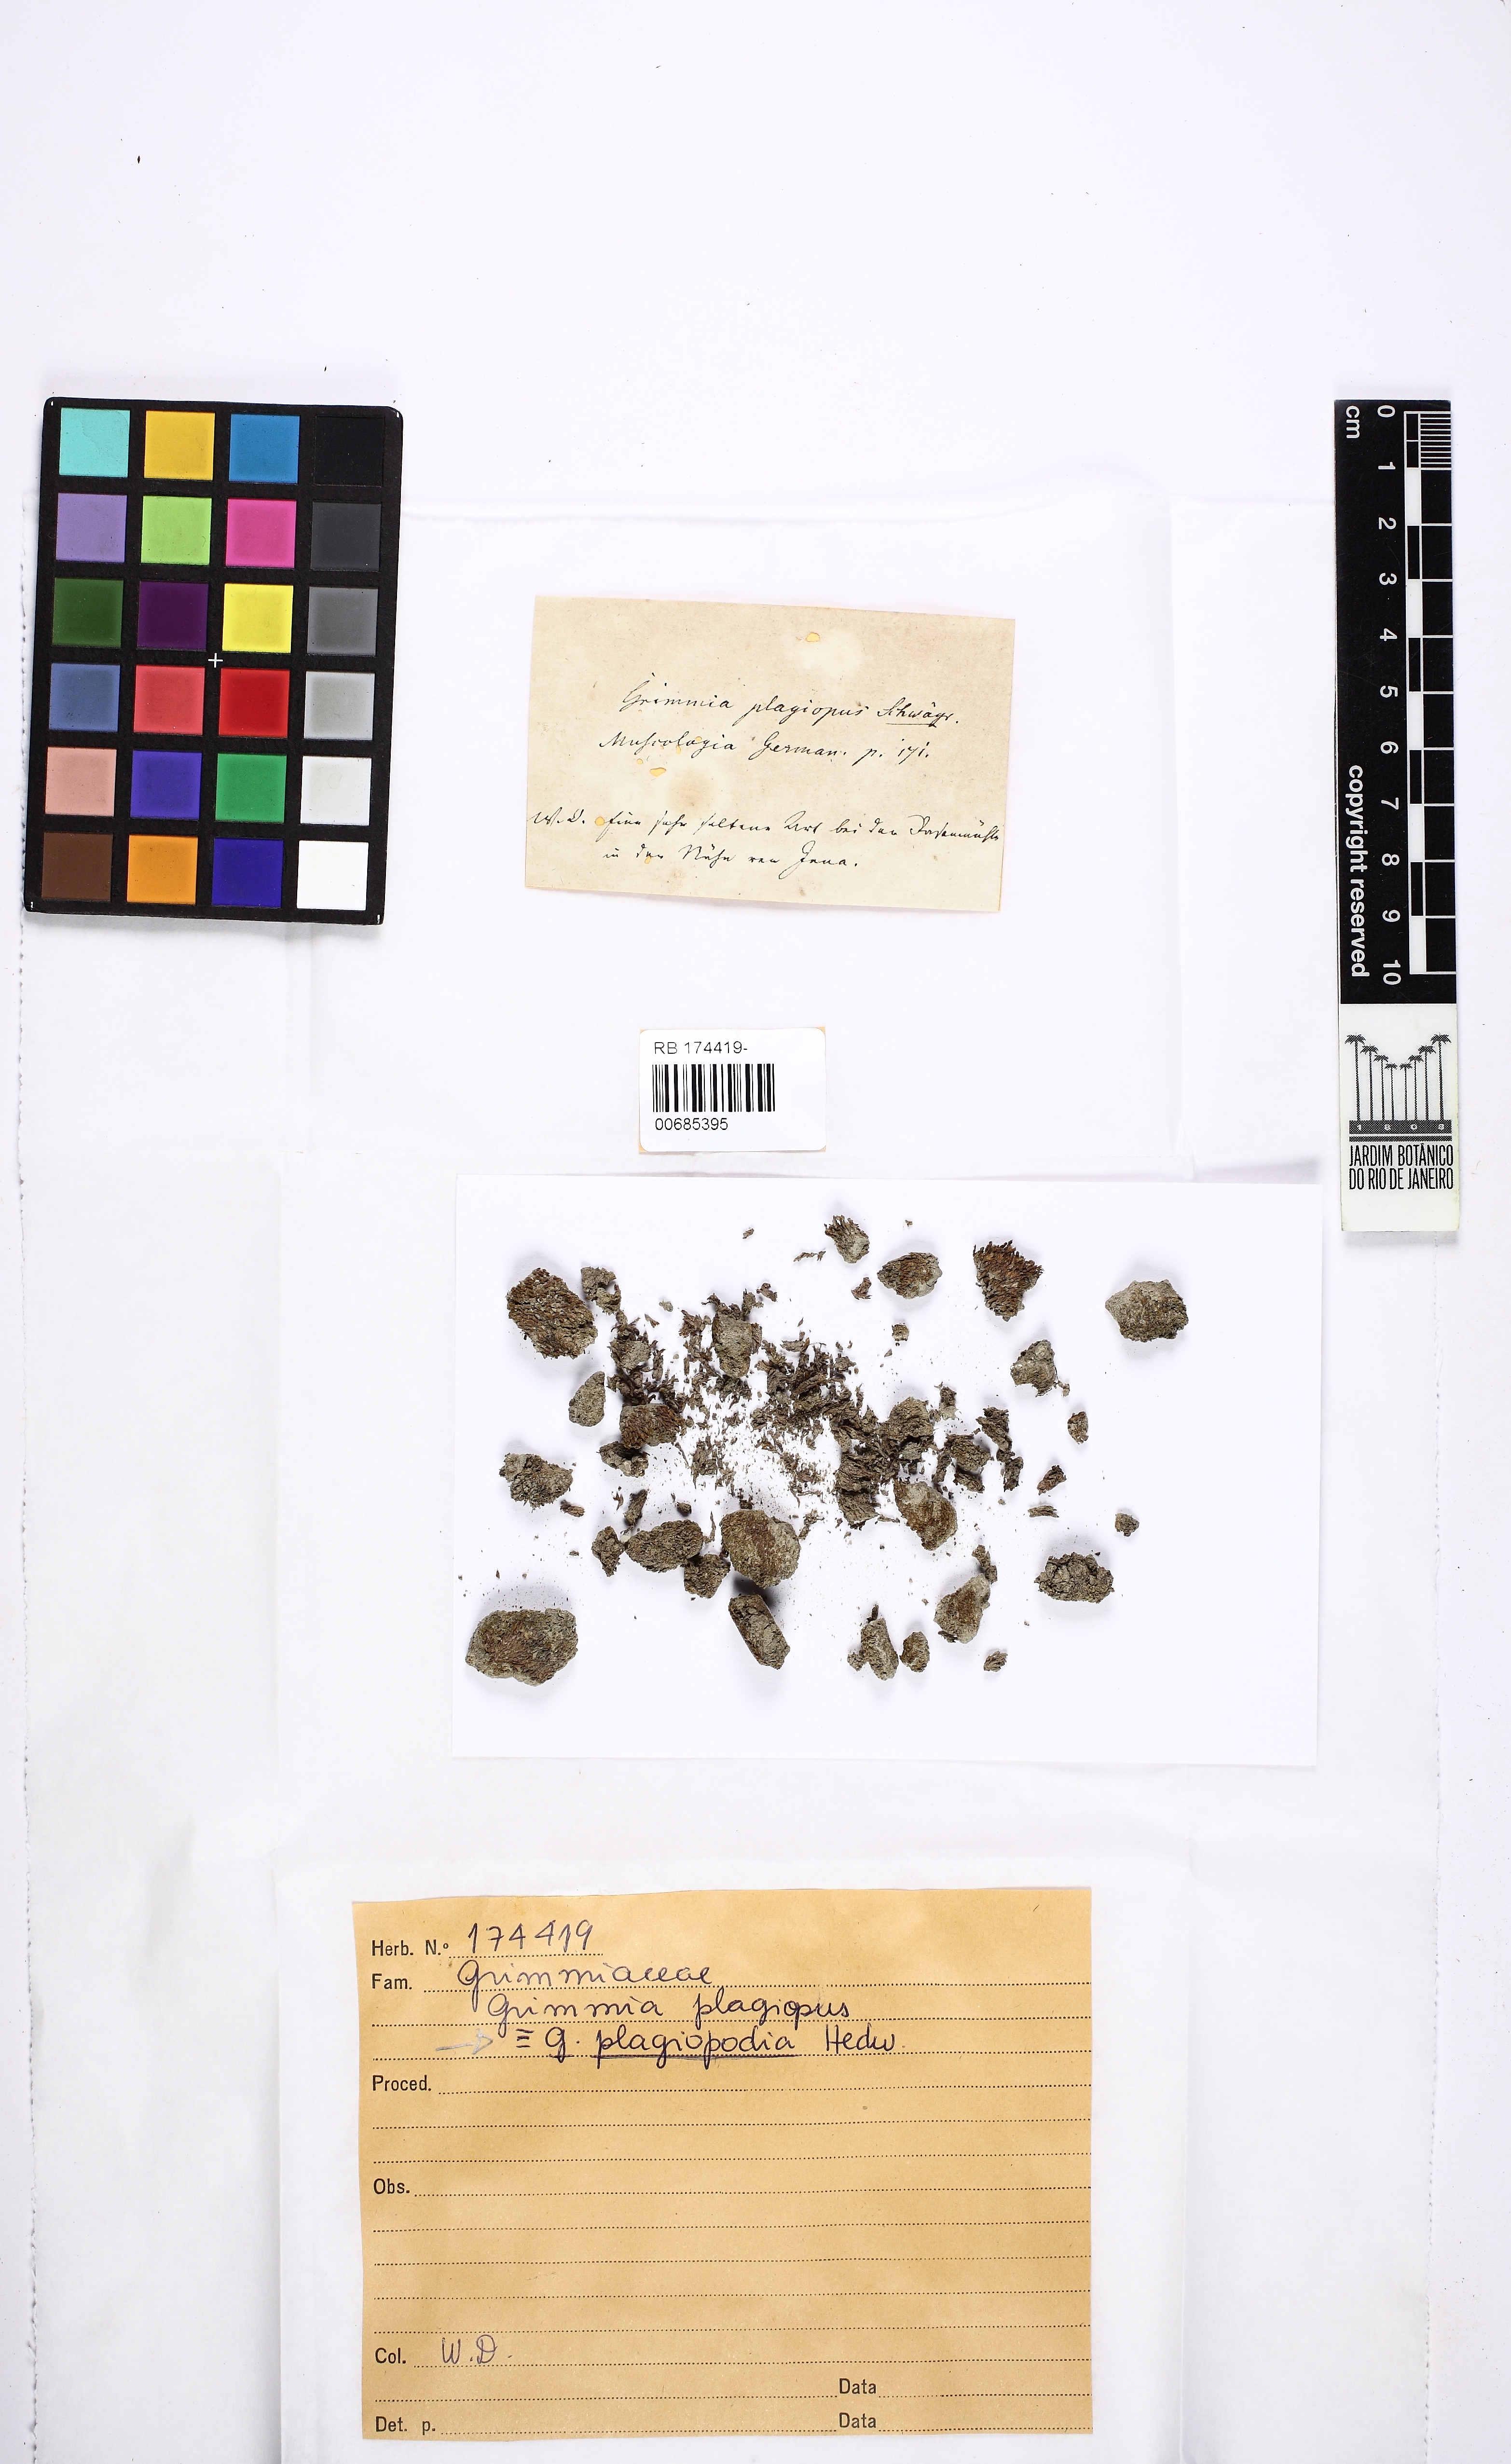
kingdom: Plantae
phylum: Bryophyta
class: Bryopsida
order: Grimmiales
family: Grimmiaceae
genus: Grimmia
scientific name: Grimmia plagiopodia
